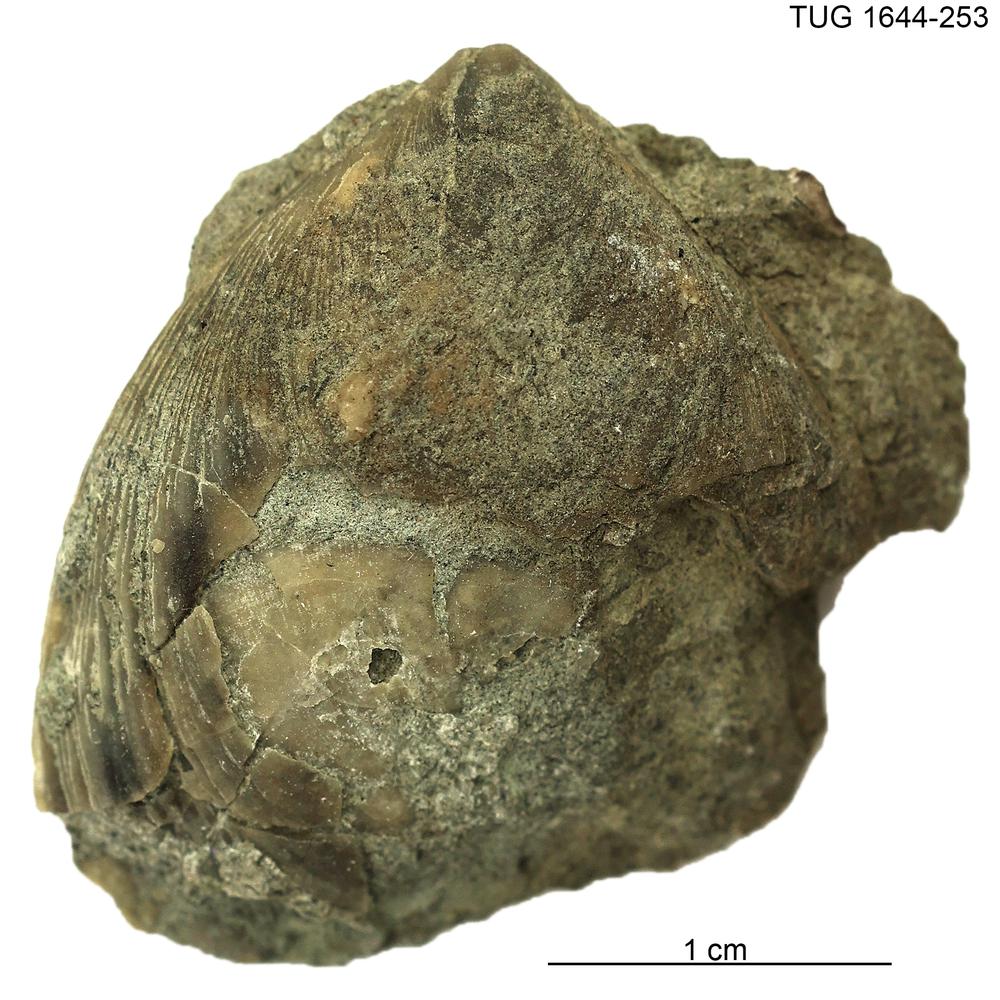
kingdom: Animalia
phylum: Mollusca
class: Monoplacophora
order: Tryblidiida
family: Tryblidiidae
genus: Pilina
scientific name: Pilina
